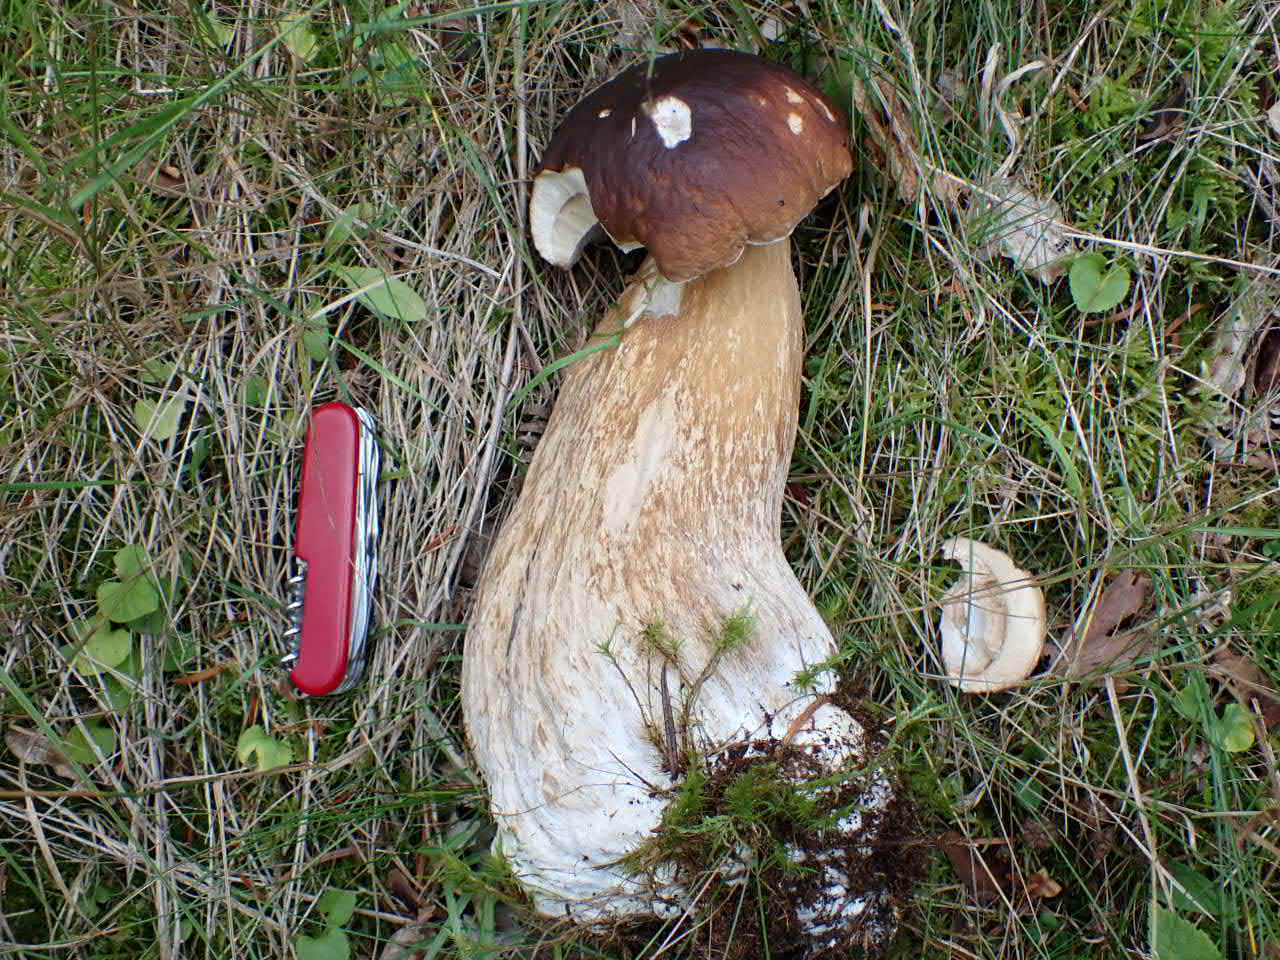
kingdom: Fungi
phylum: Basidiomycota
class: Agaricomycetes
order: Boletales
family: Boletaceae
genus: Boletus
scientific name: Boletus edulis
